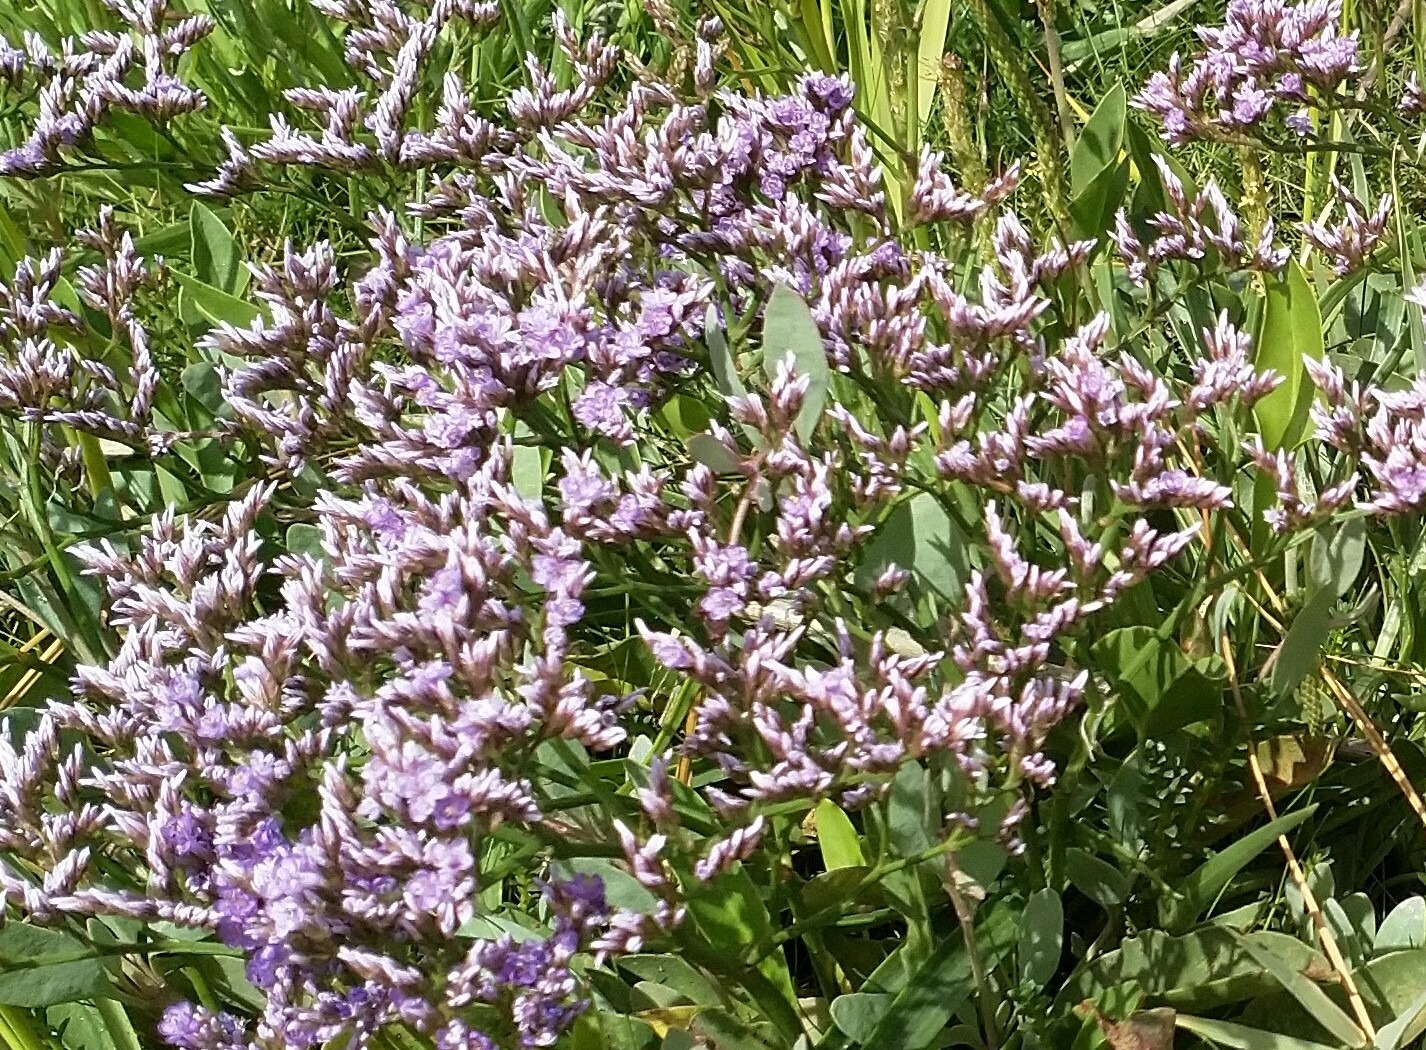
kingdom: Plantae
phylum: Tracheophyta
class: Magnoliopsida
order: Caryophyllales
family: Plumbaginaceae
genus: Limonium
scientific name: Limonium vulgare
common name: Tætblomstret hindebæger
